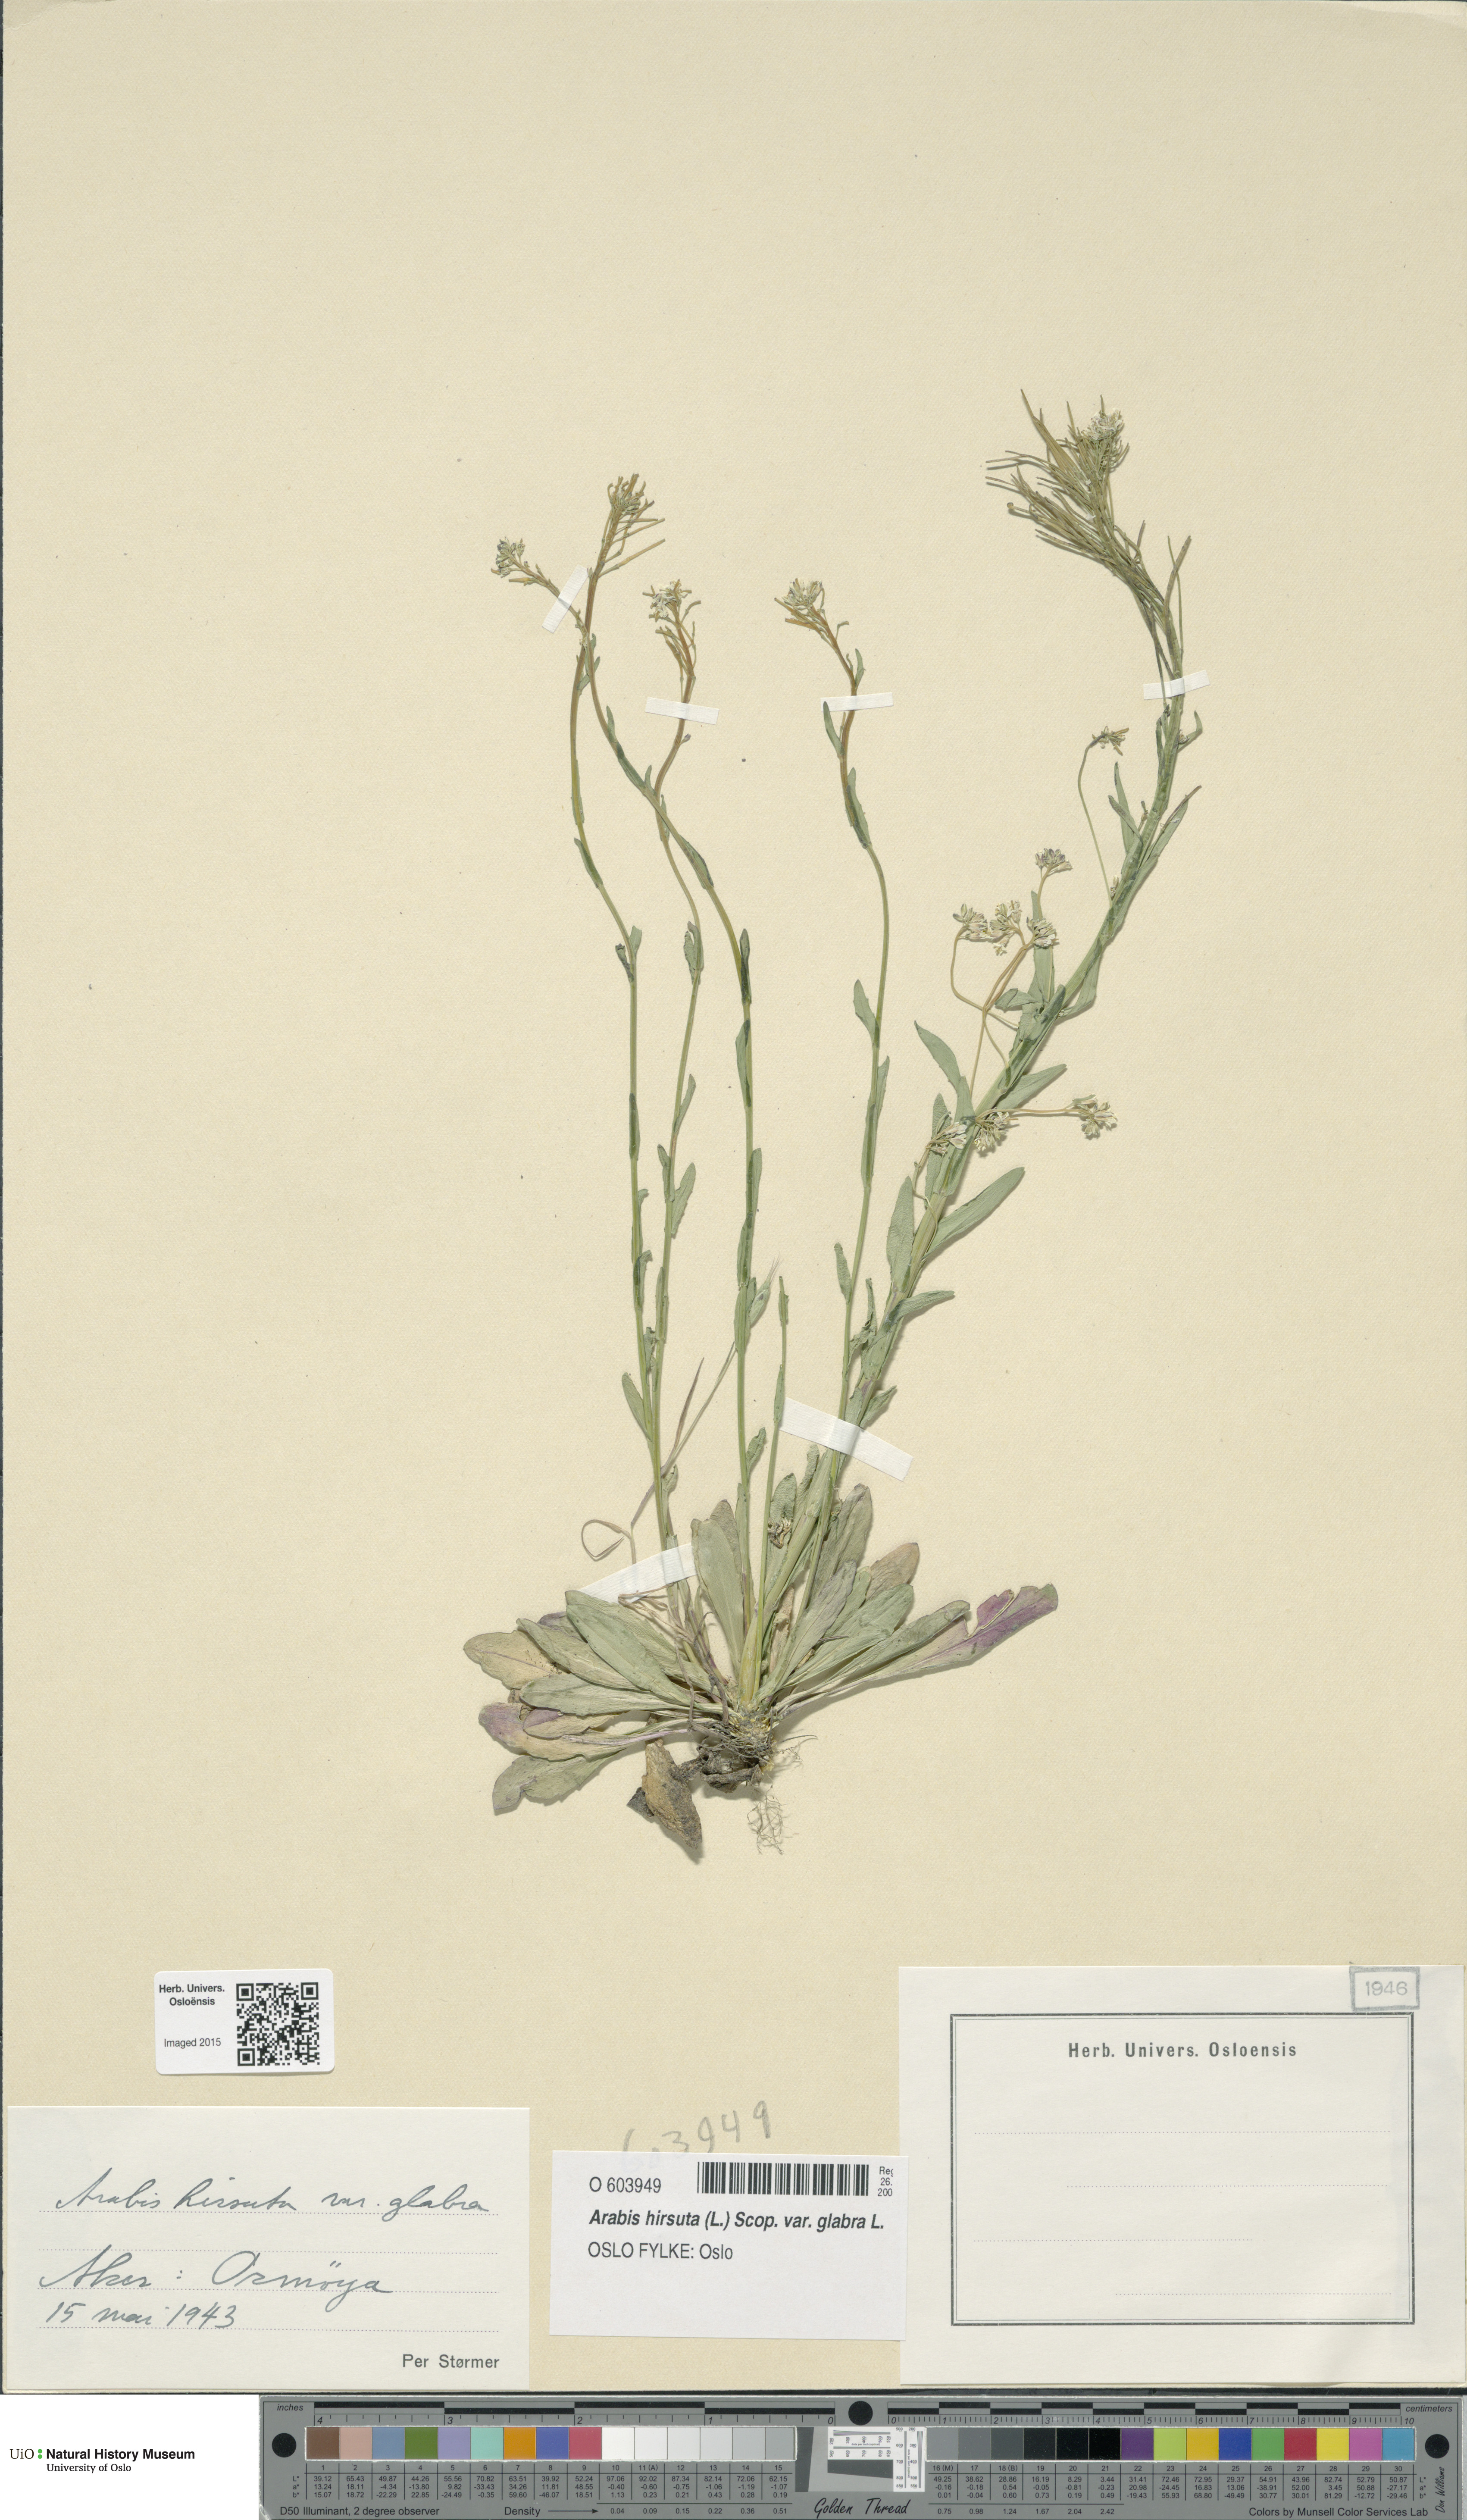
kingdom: Plantae
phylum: Tracheophyta
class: Magnoliopsida
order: Brassicales
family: Brassicaceae
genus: Arabis
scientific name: Arabis hirsuta
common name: Hairy rock-cress
